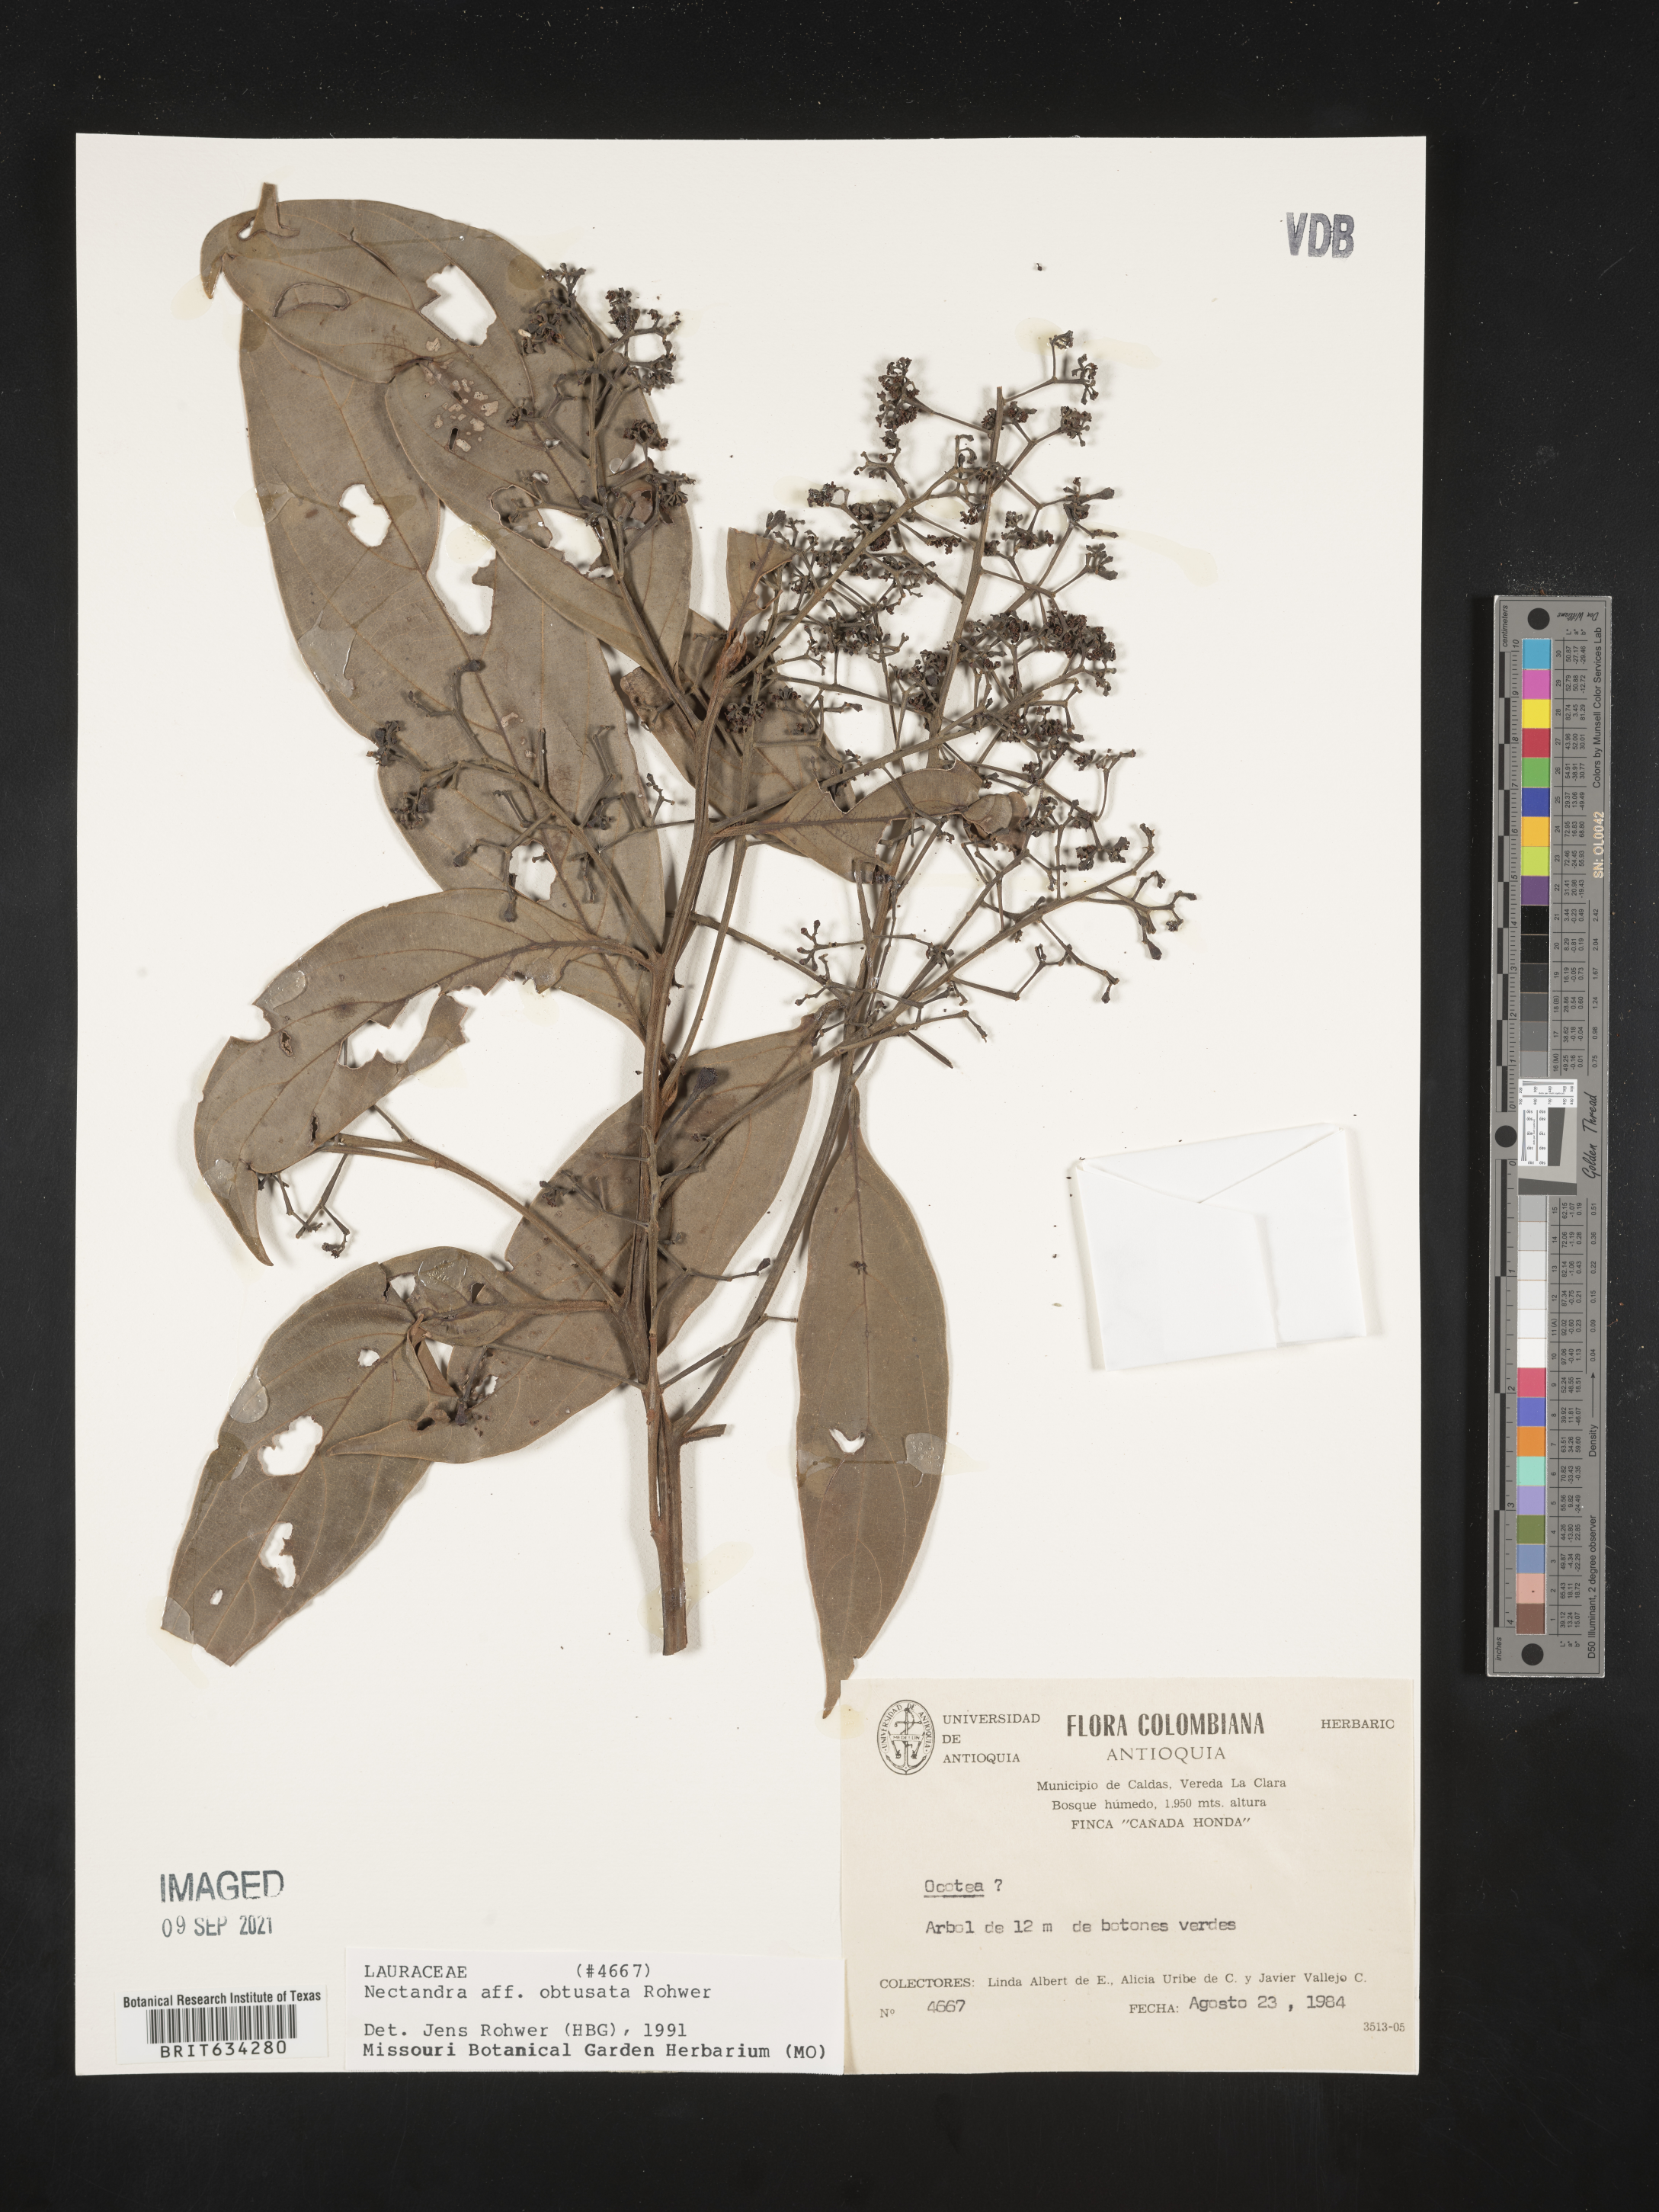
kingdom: Plantae
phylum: Tracheophyta
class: Magnoliopsida
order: Laurales
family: Lauraceae
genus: Nectandra
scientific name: Nectandra
